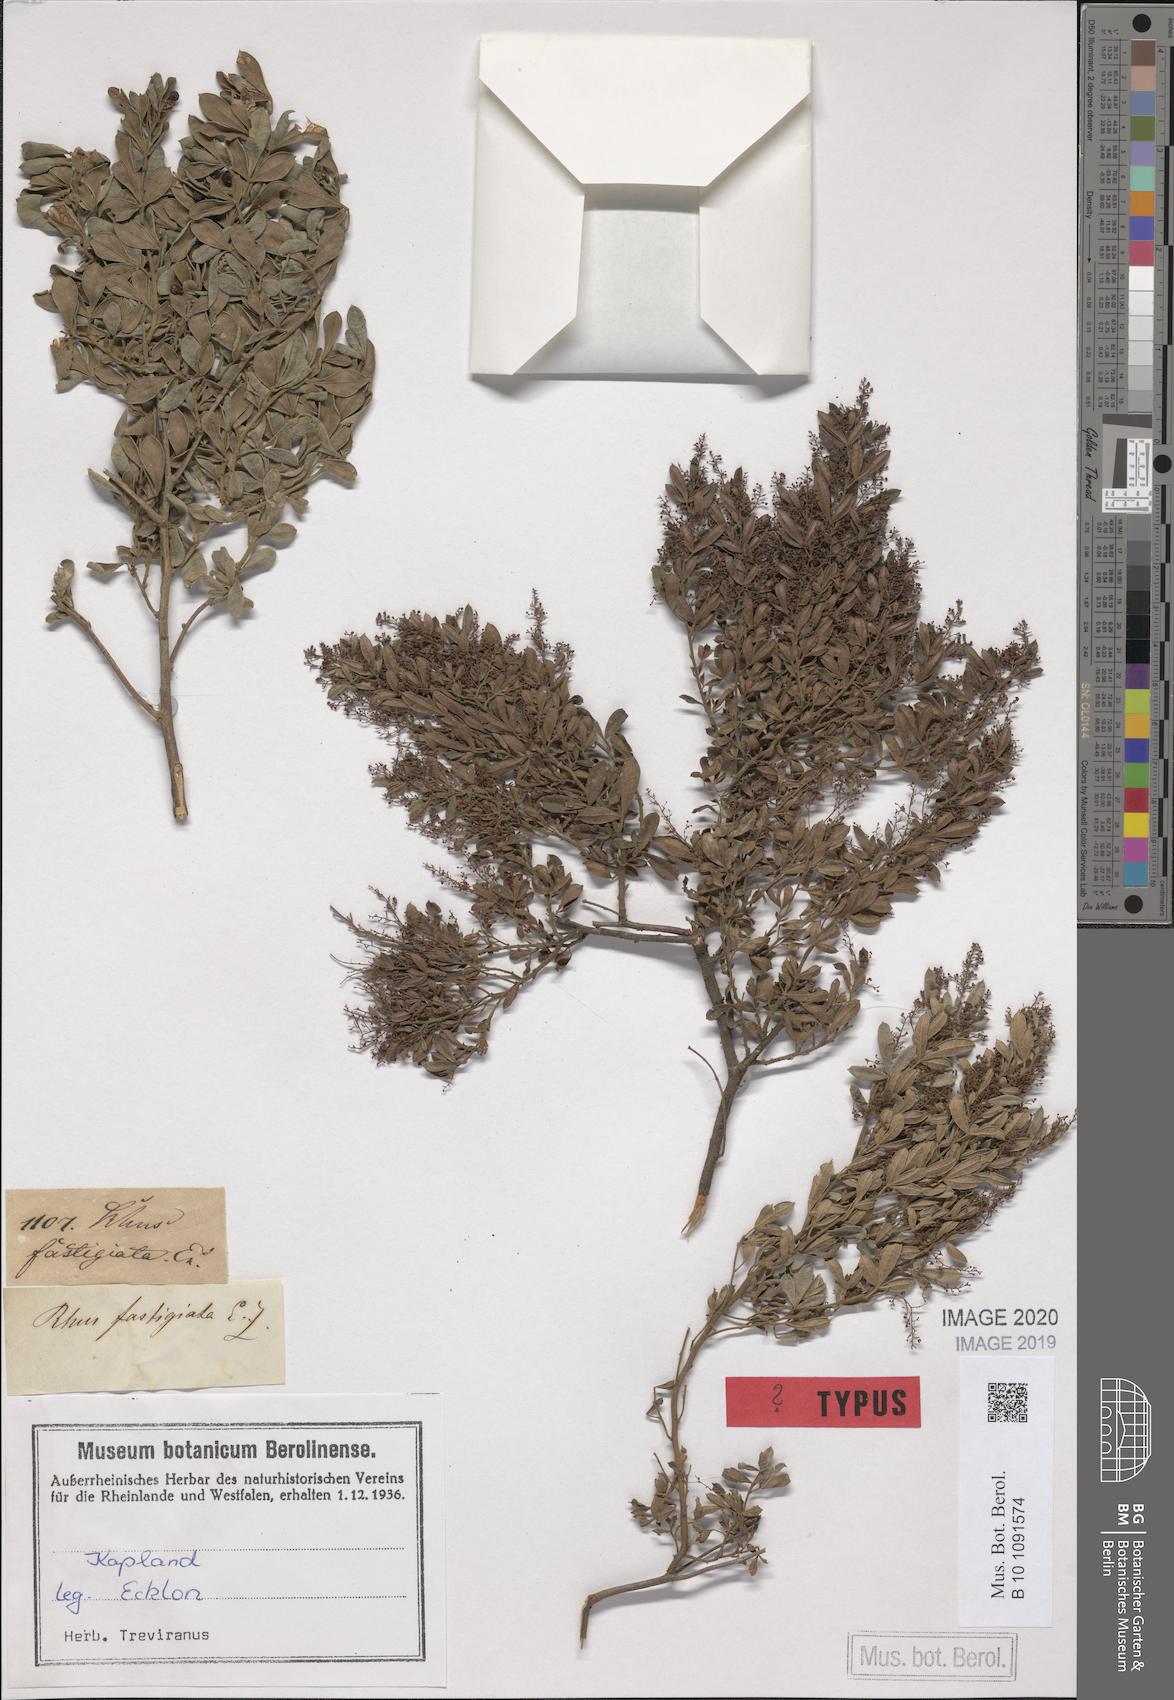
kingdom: Plantae
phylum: Tracheophyta
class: Magnoliopsida
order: Sapindales
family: Anacardiaceae
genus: Searsia
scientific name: Searsia fastigiata
